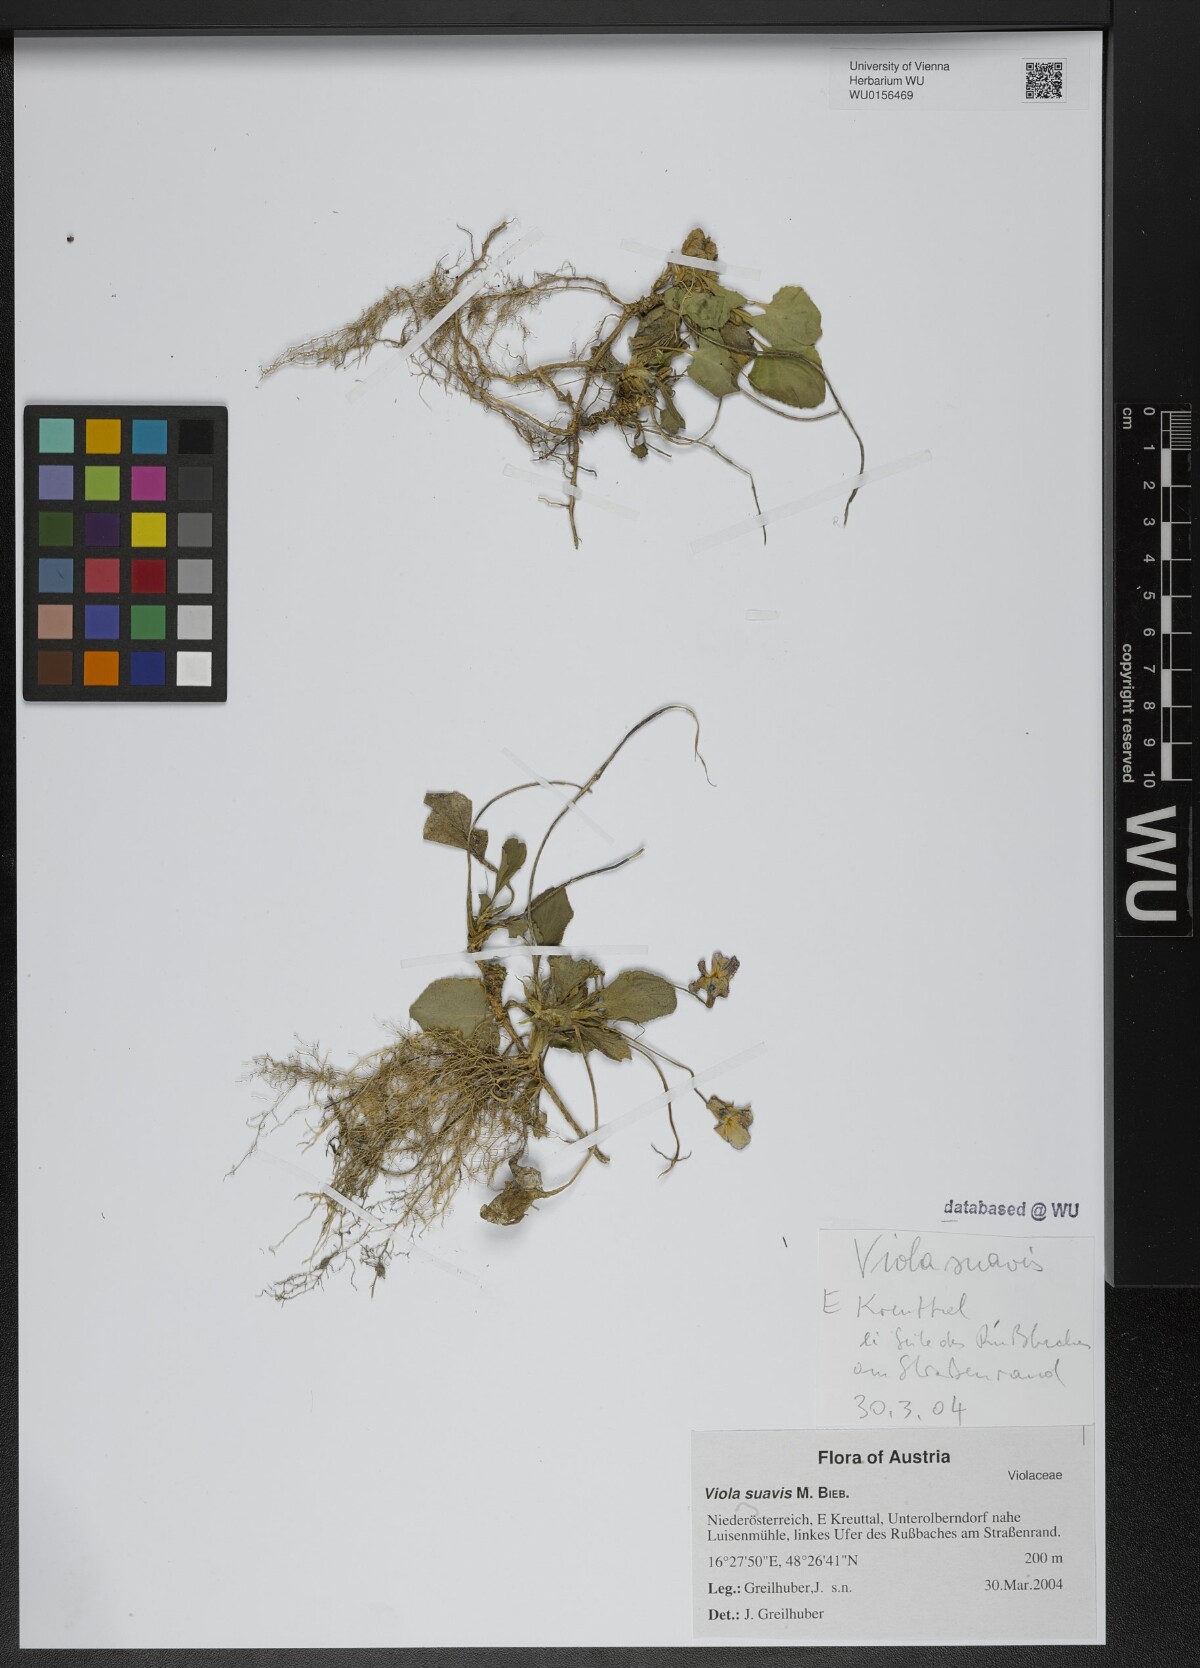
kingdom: Plantae
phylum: Tracheophyta
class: Magnoliopsida
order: Malpighiales
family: Violaceae
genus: Viola
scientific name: Viola suavis
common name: Russian violet
